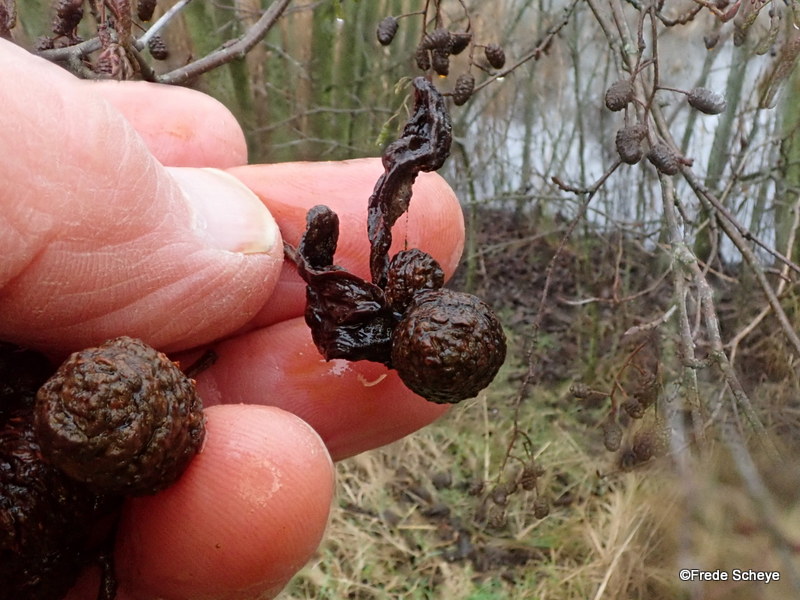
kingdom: Fungi
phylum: Ascomycota
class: Taphrinomycetes
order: Taphrinales
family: Taphrinaceae
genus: Taphrina
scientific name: Taphrina alni
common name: Alder tongue
